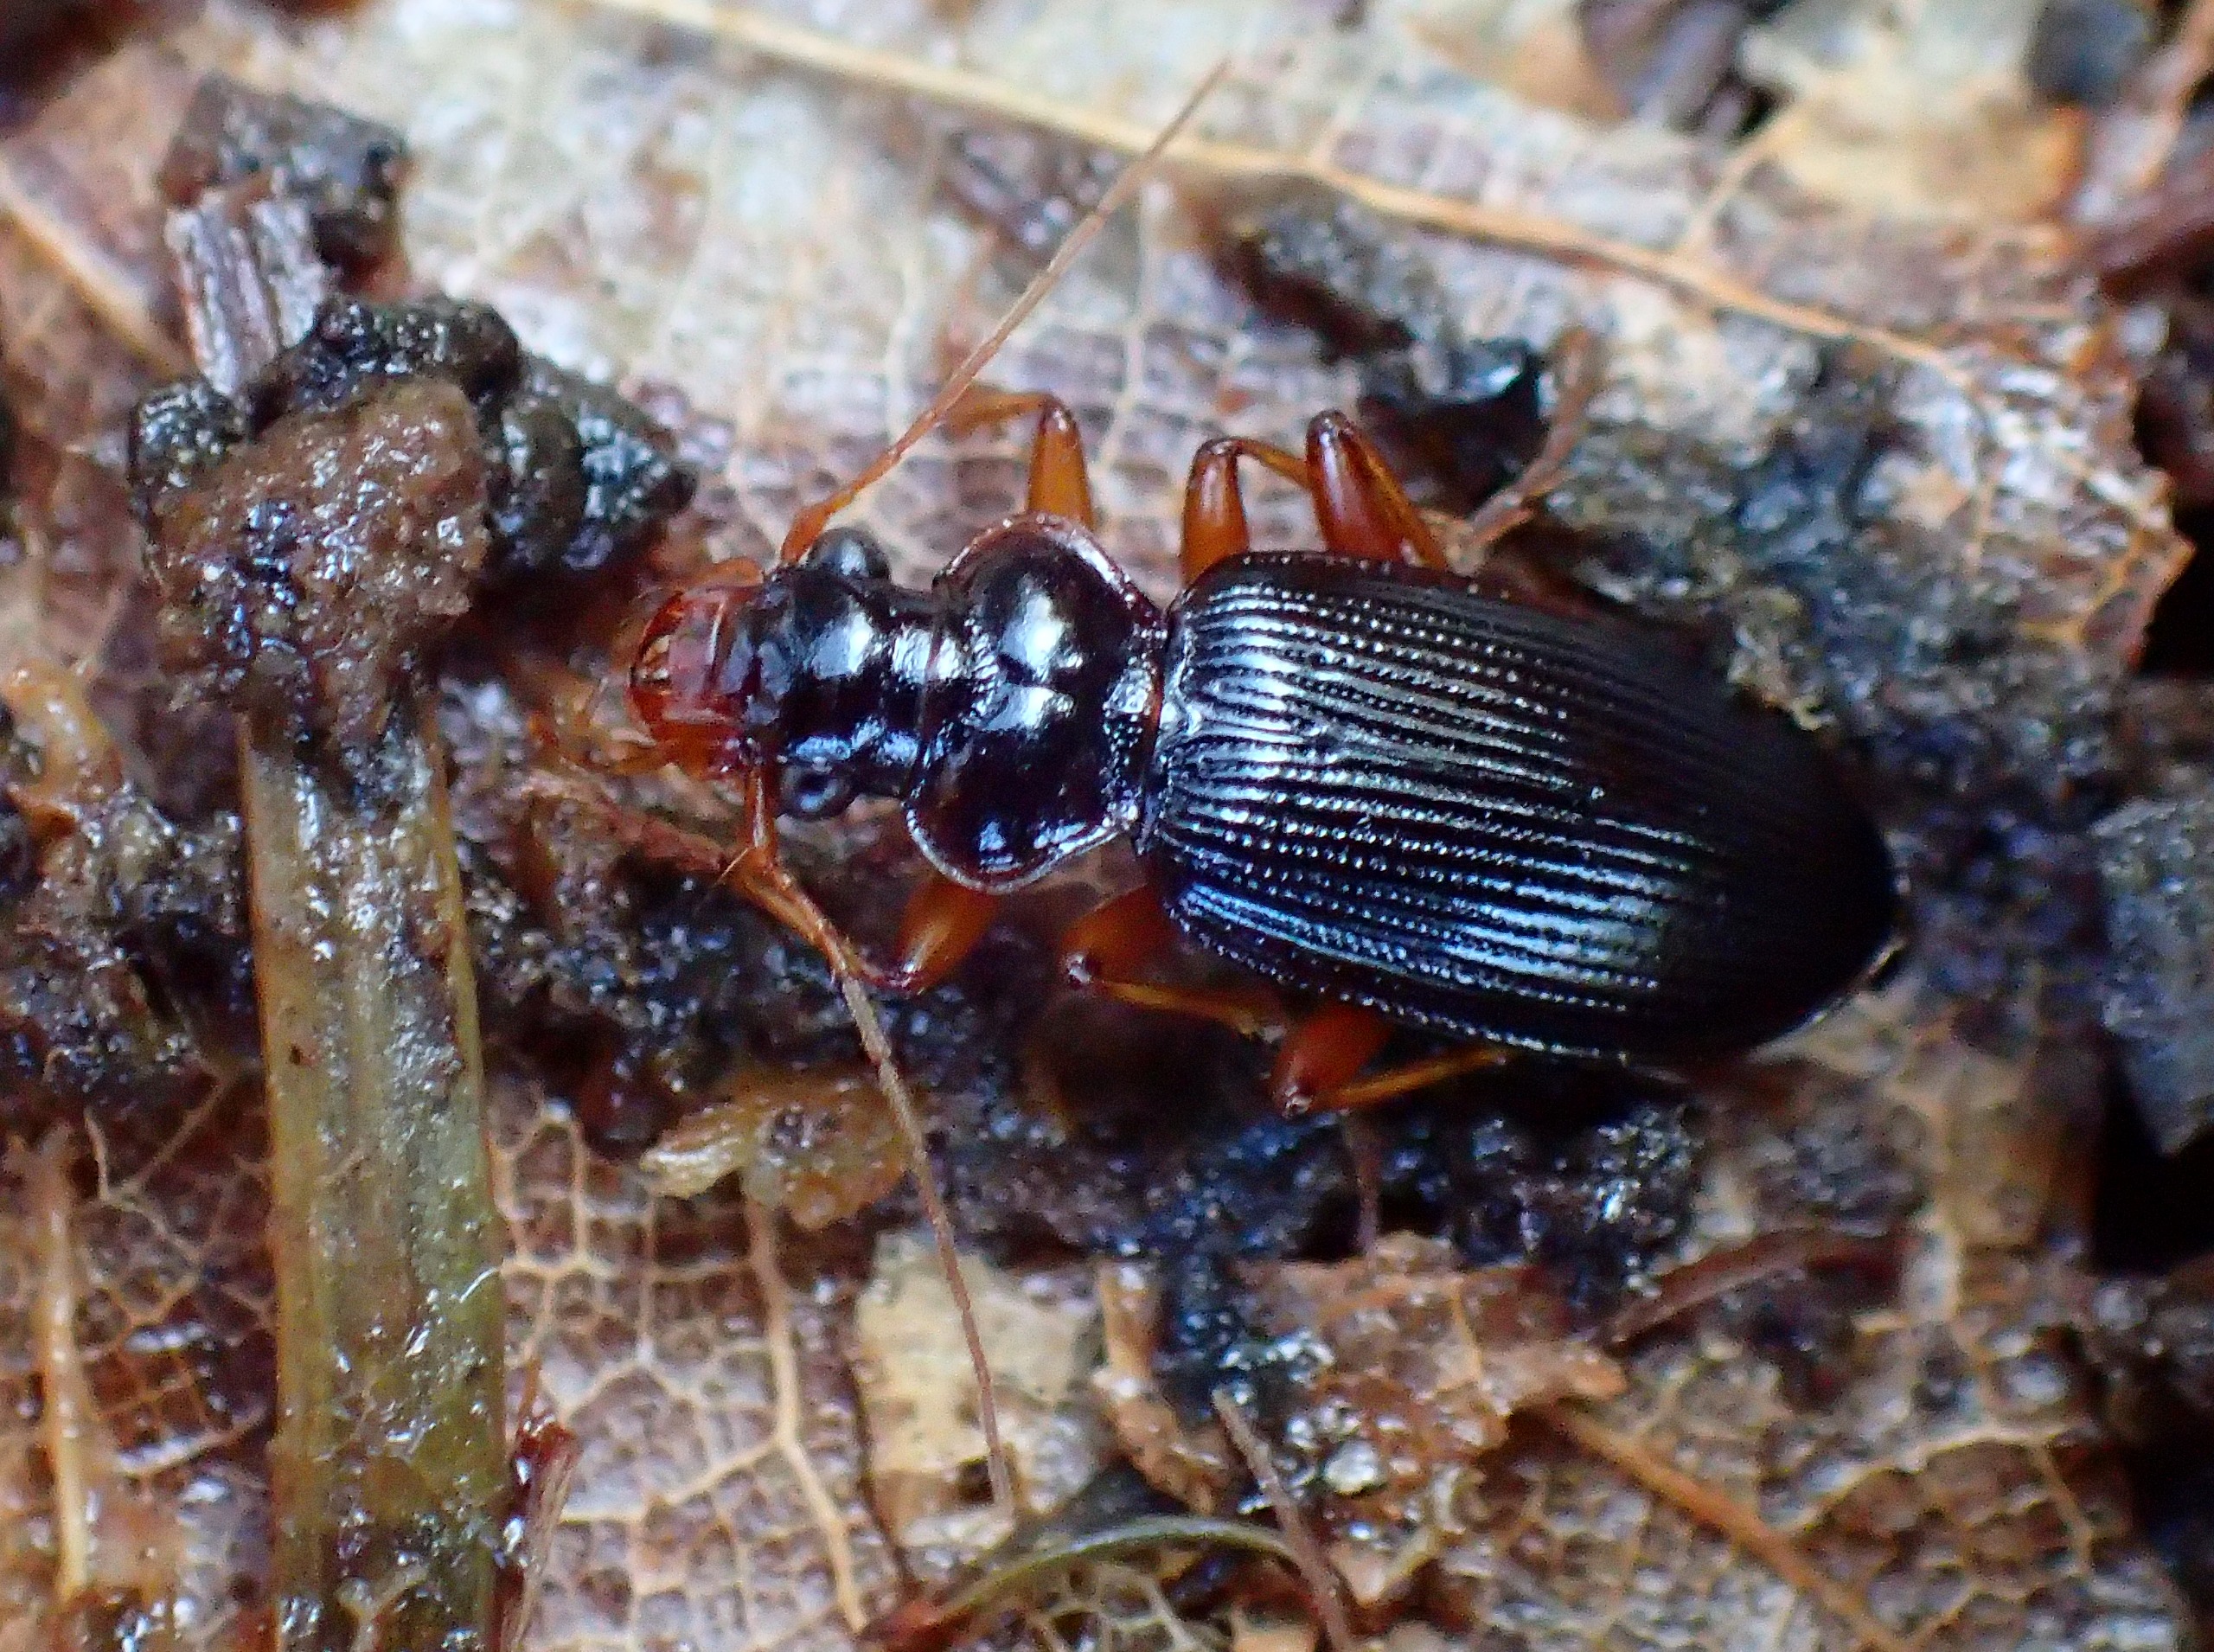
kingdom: Animalia
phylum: Arthropoda
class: Insecta
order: Coleoptera
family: Carabidae
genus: Leistus
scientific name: Leistus rufomarginatus
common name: Stor skægløber
